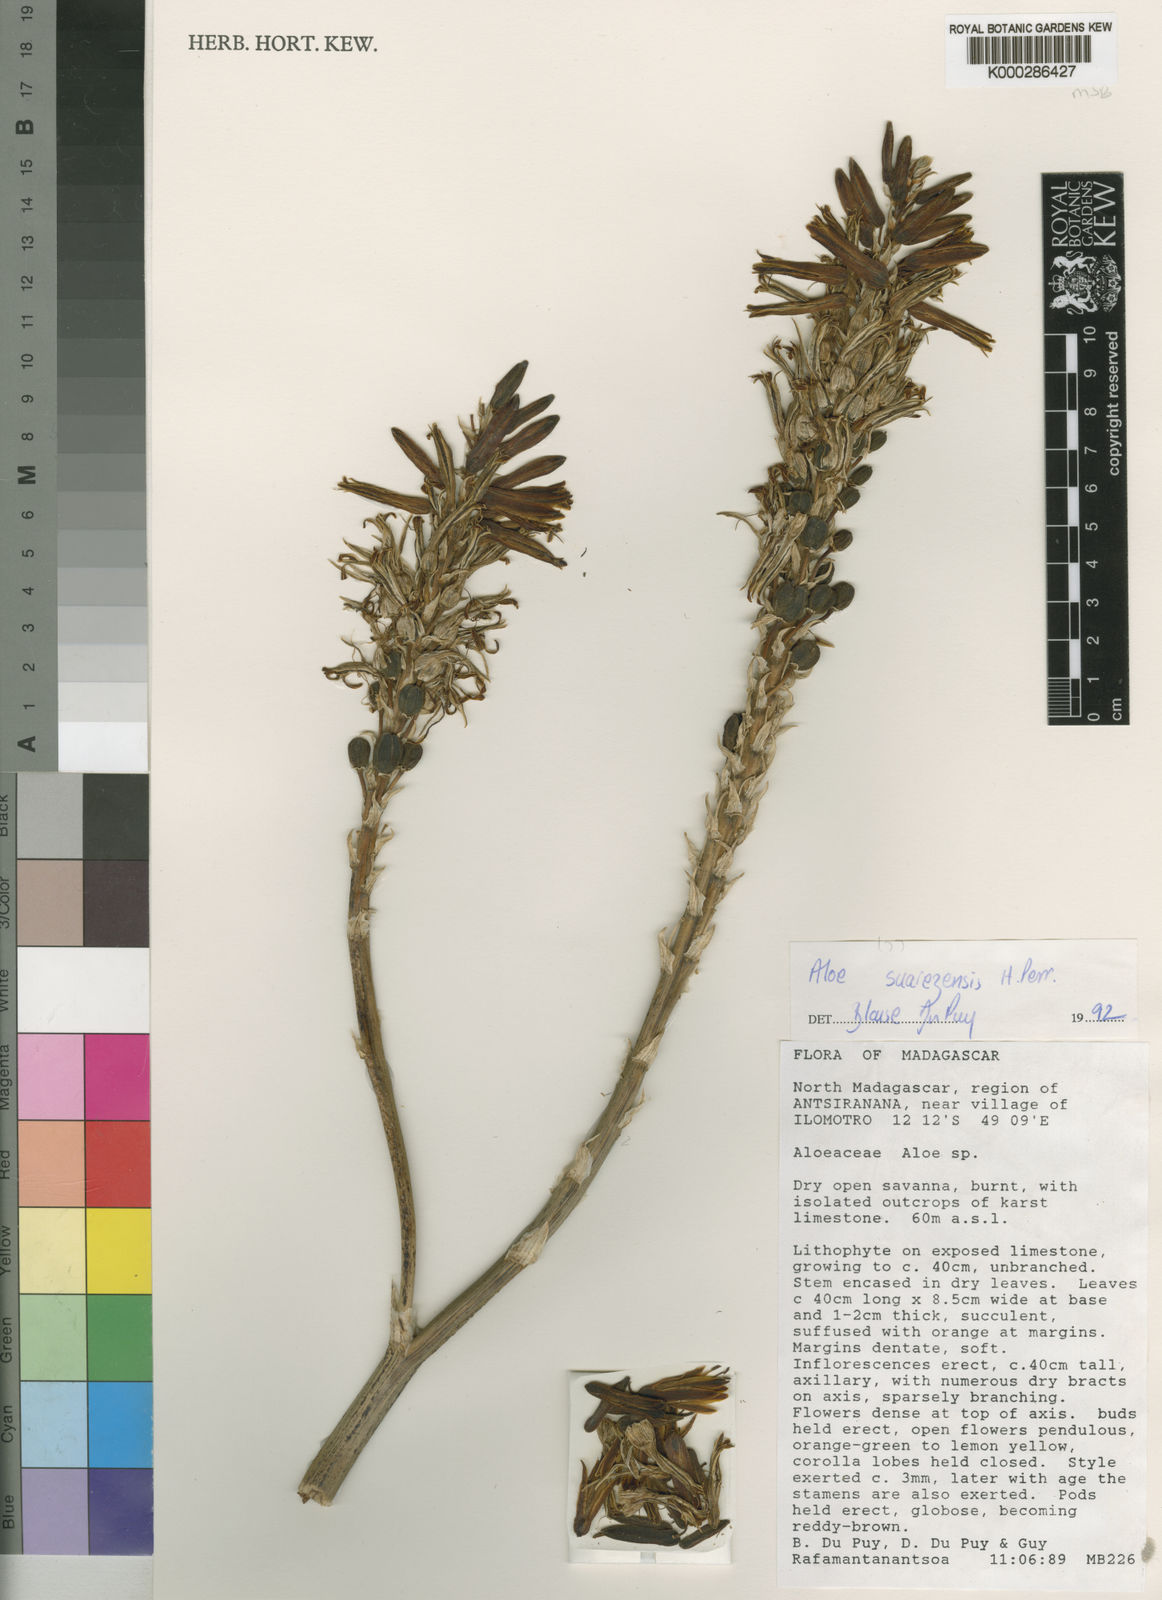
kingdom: Plantae
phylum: Tracheophyta
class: Liliopsida
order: Asparagales
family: Asphodelaceae
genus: Aloe
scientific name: Aloe
